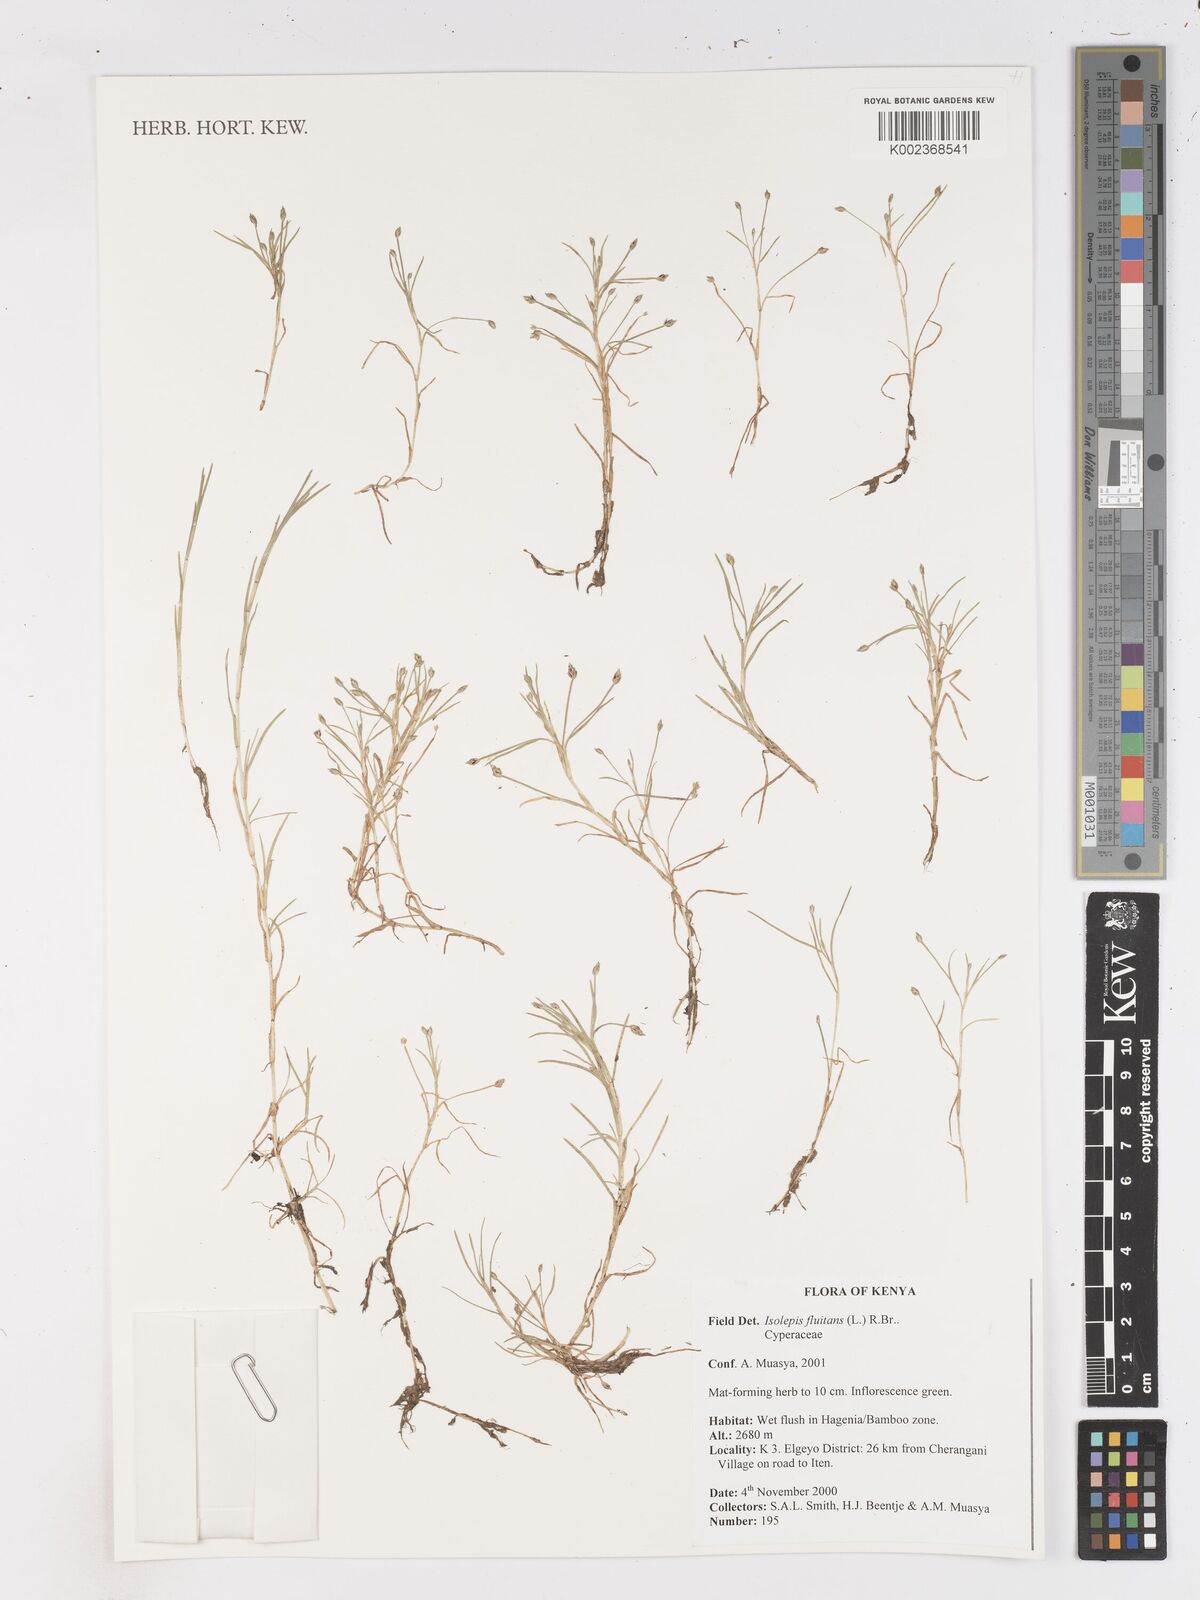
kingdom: Plantae
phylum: Tracheophyta
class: Liliopsida
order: Poales
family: Cyperaceae
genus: Isolepis
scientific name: Isolepis fluitans
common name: Floating club-rush
